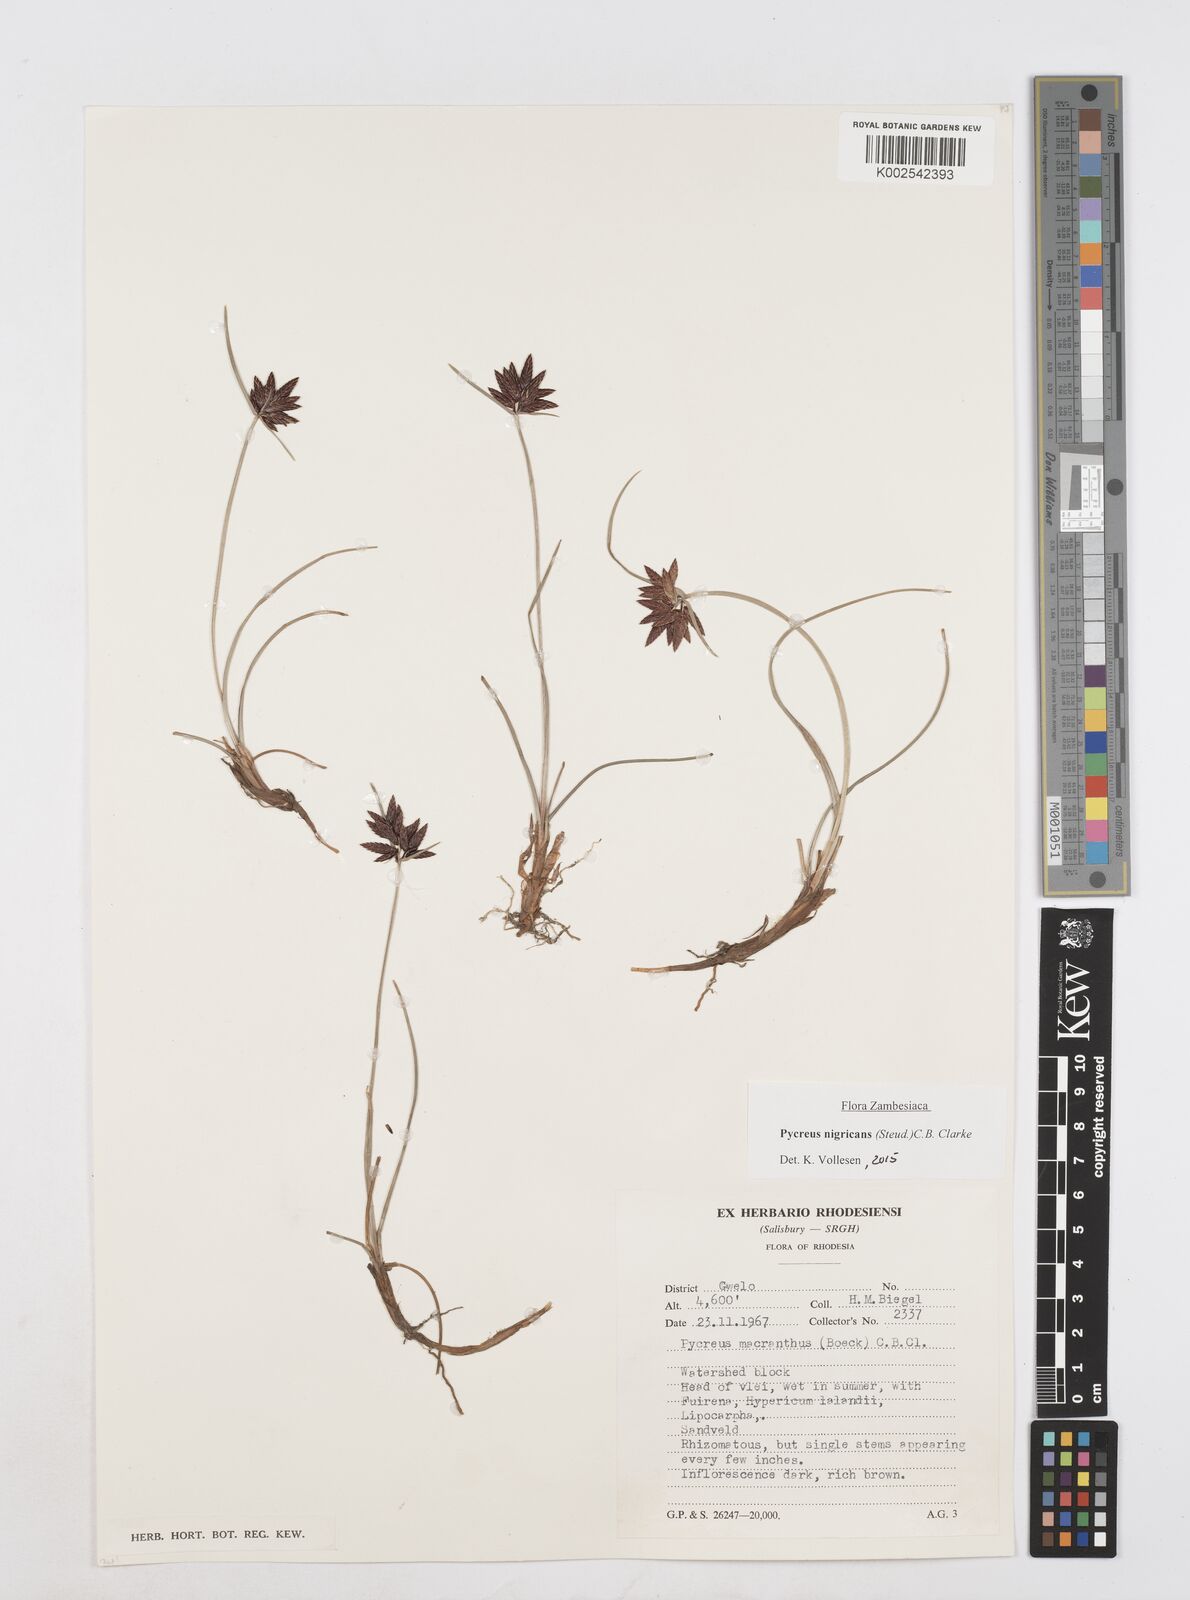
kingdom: Plantae
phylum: Tracheophyta
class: Liliopsida
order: Poales
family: Cyperaceae
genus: Cyperus
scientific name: Cyperus nigricans
